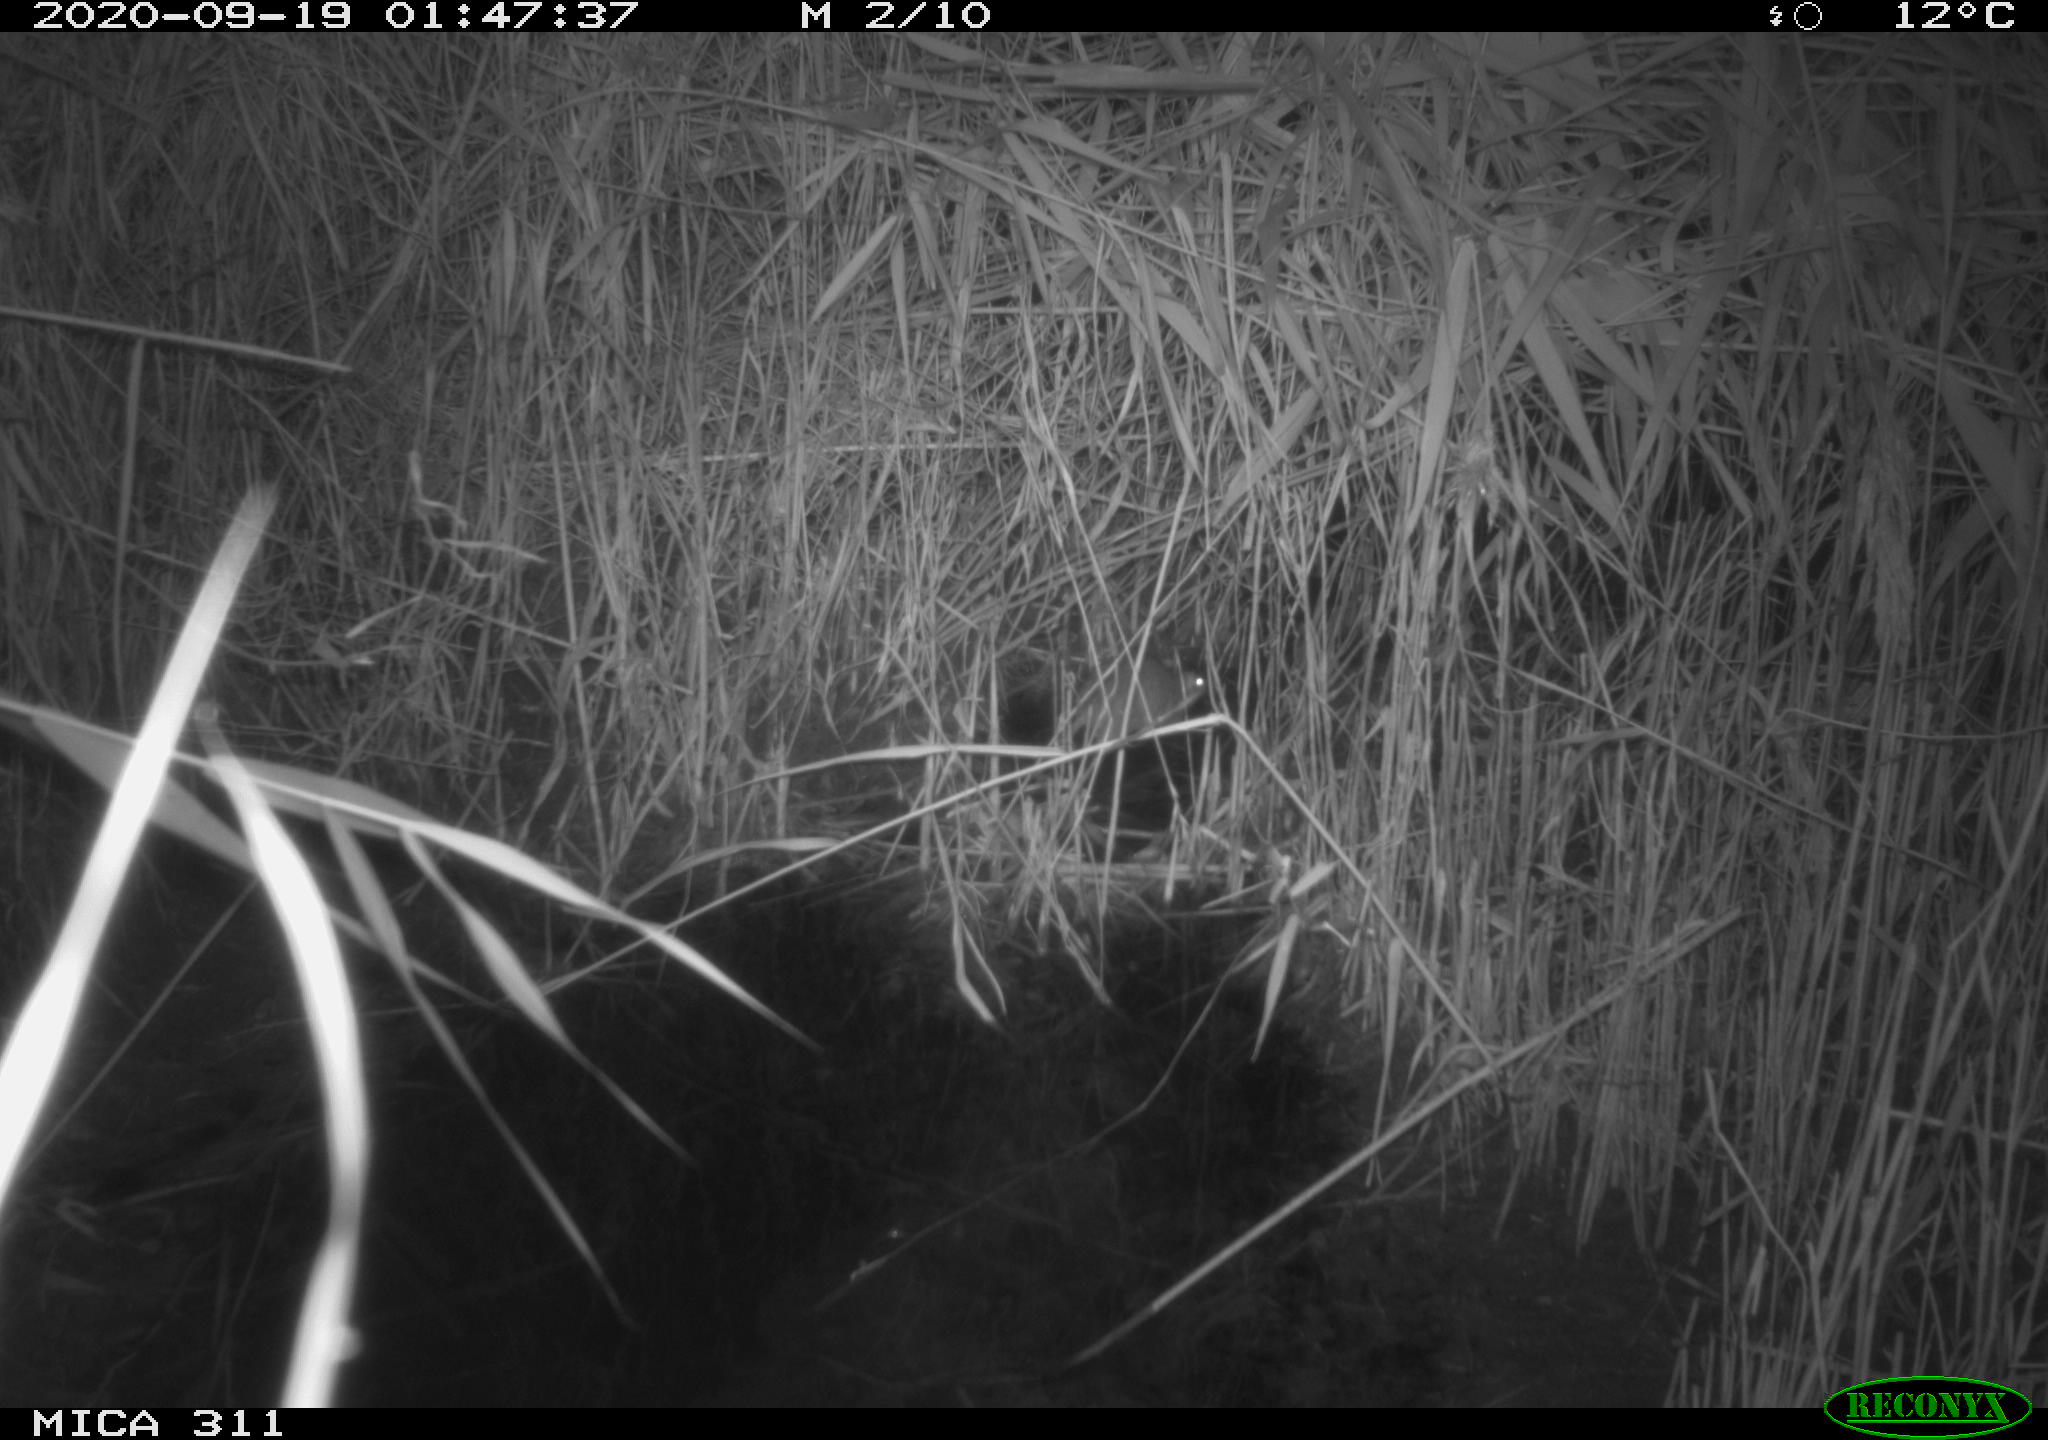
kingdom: Animalia
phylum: Chordata
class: Mammalia
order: Rodentia
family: Muridae
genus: Rattus
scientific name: Rattus norvegicus
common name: Brown rat
